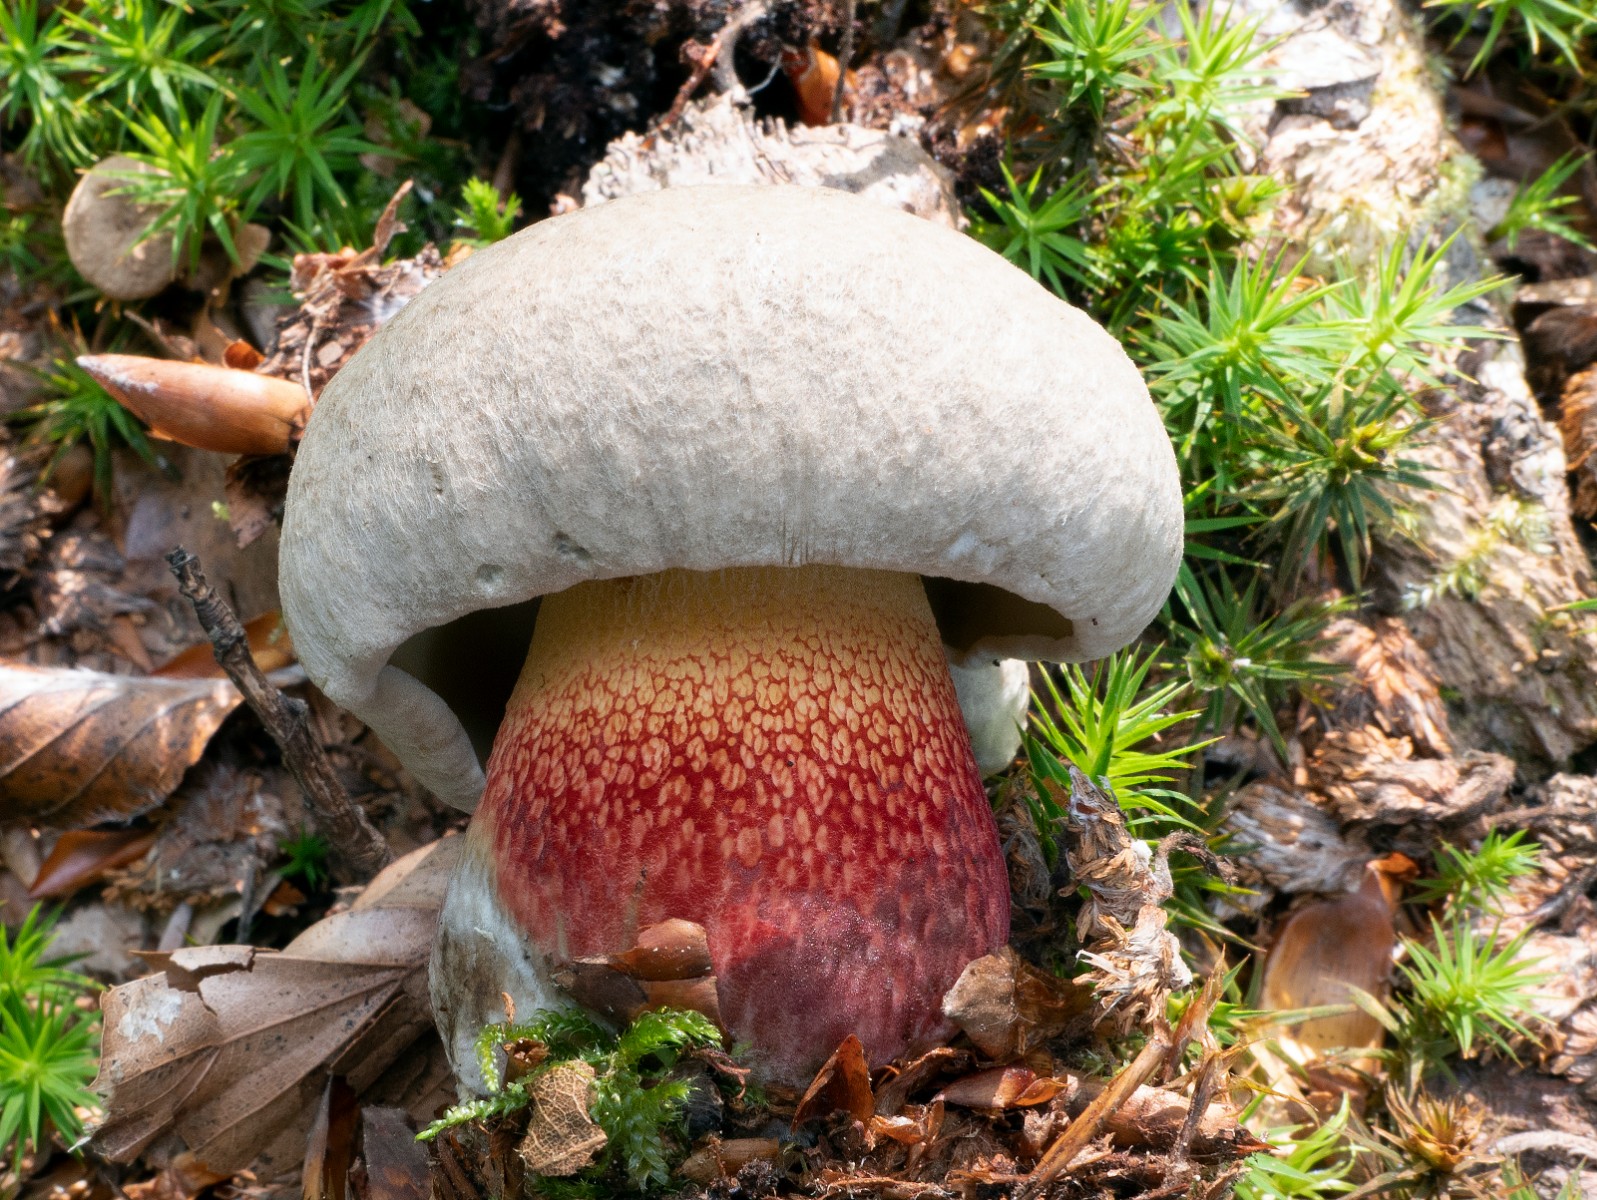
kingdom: Fungi
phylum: Basidiomycota
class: Agaricomycetes
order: Boletales
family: Boletaceae
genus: Caloboletus
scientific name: Caloboletus calopus
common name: skønfodet rørhat
